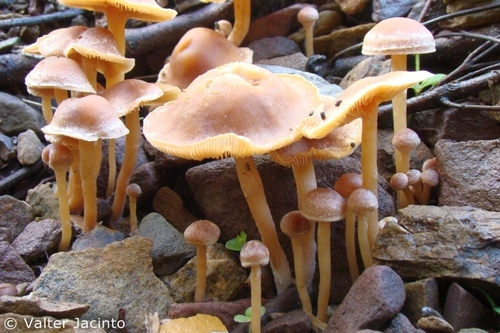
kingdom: Fungi
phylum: Basidiomycota
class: Agaricomycetes
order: Agaricales
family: Tubariaceae
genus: Tubaria
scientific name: Tubaria furfuracea
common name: Scurfy twiglet
